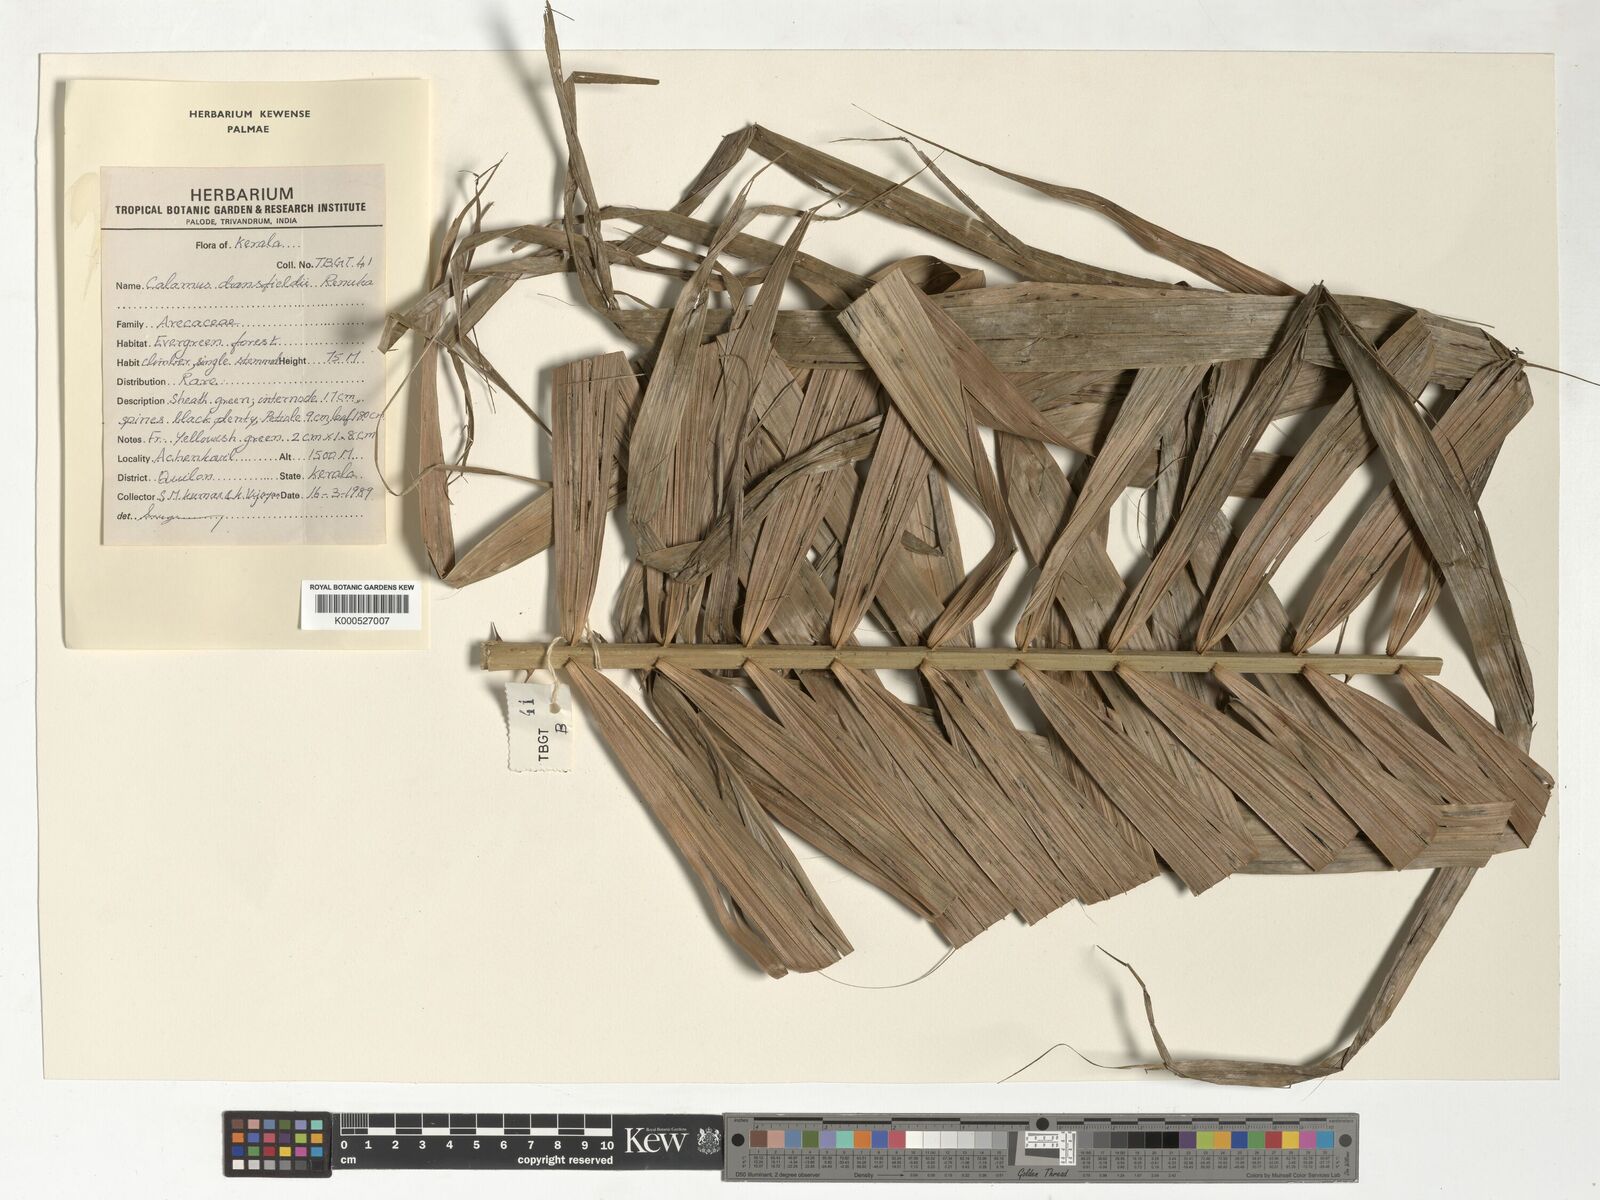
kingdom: Plantae
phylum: Tracheophyta
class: Liliopsida
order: Arecales
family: Arecaceae
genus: Calamus
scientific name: Calamus gamblei
